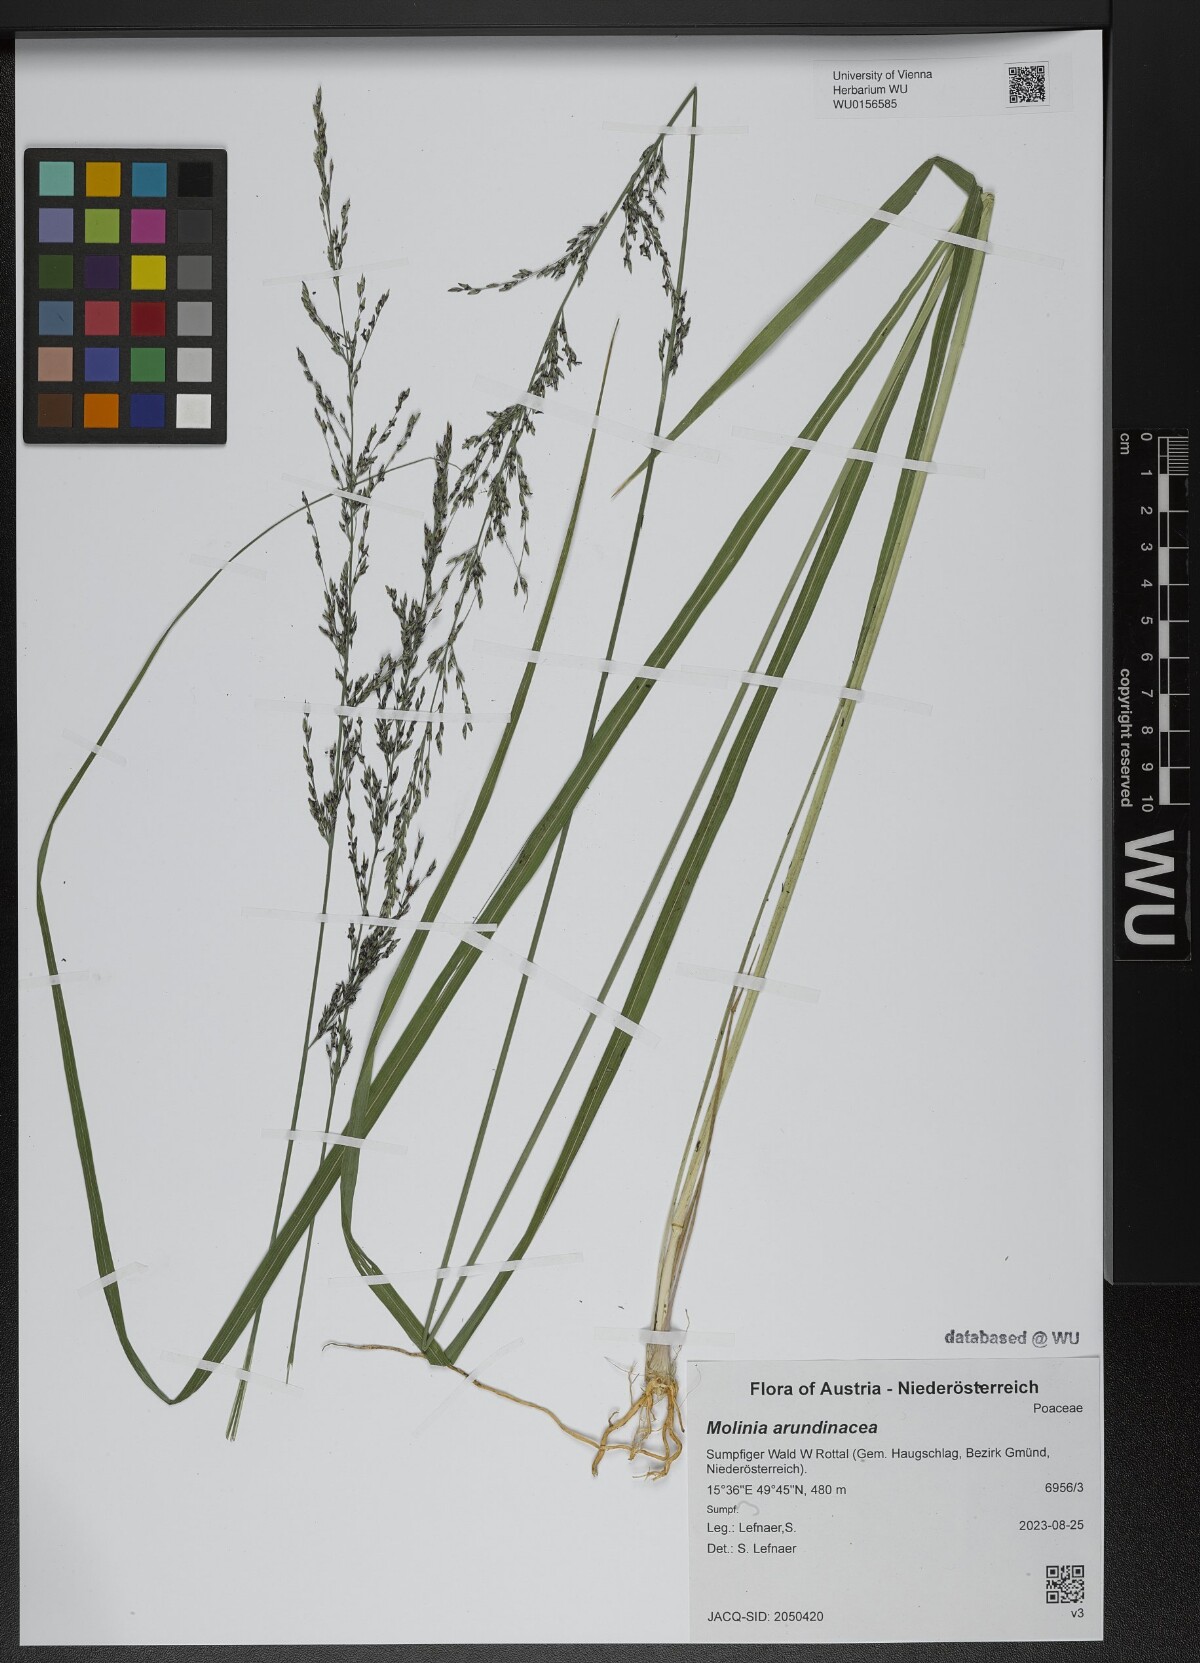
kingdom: Plantae
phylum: Tracheophyta
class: Liliopsida
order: Poales
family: Poaceae
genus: Molinia
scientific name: Molinia arundinacea
